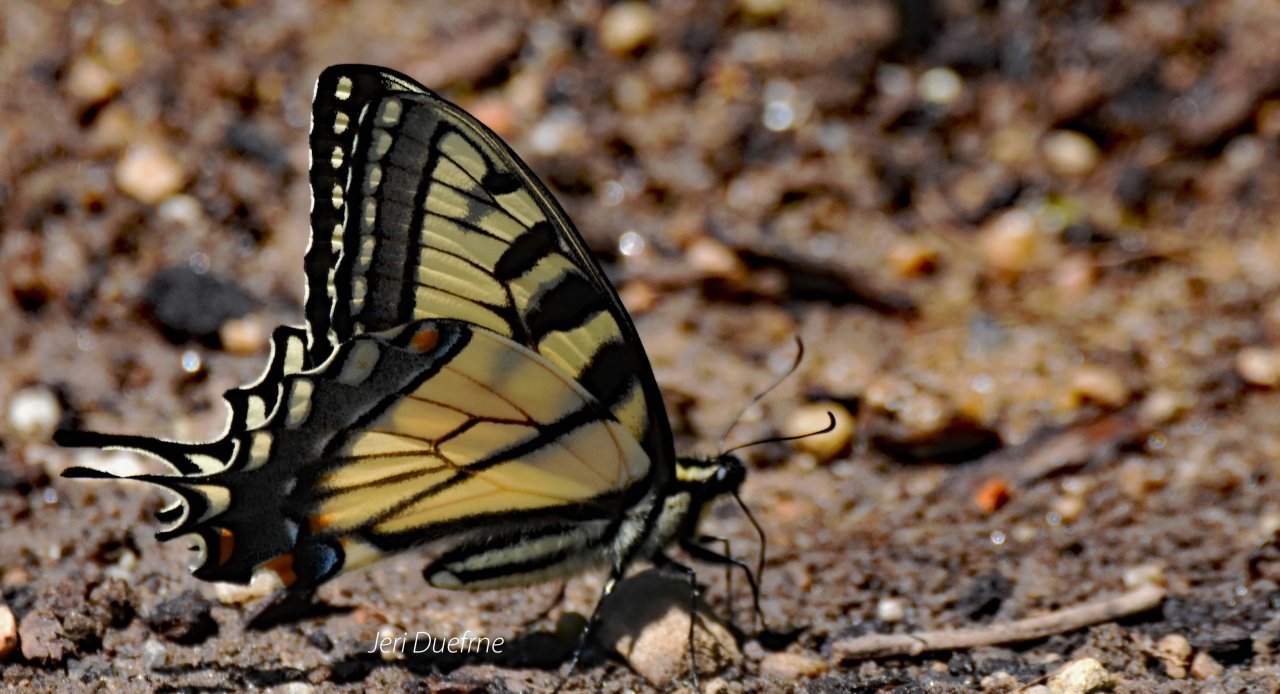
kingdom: Animalia
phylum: Arthropoda
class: Insecta
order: Lepidoptera
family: Papilionidae
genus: Pterourus
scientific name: Pterourus glaucus
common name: Eastern Tiger Swallowtail
